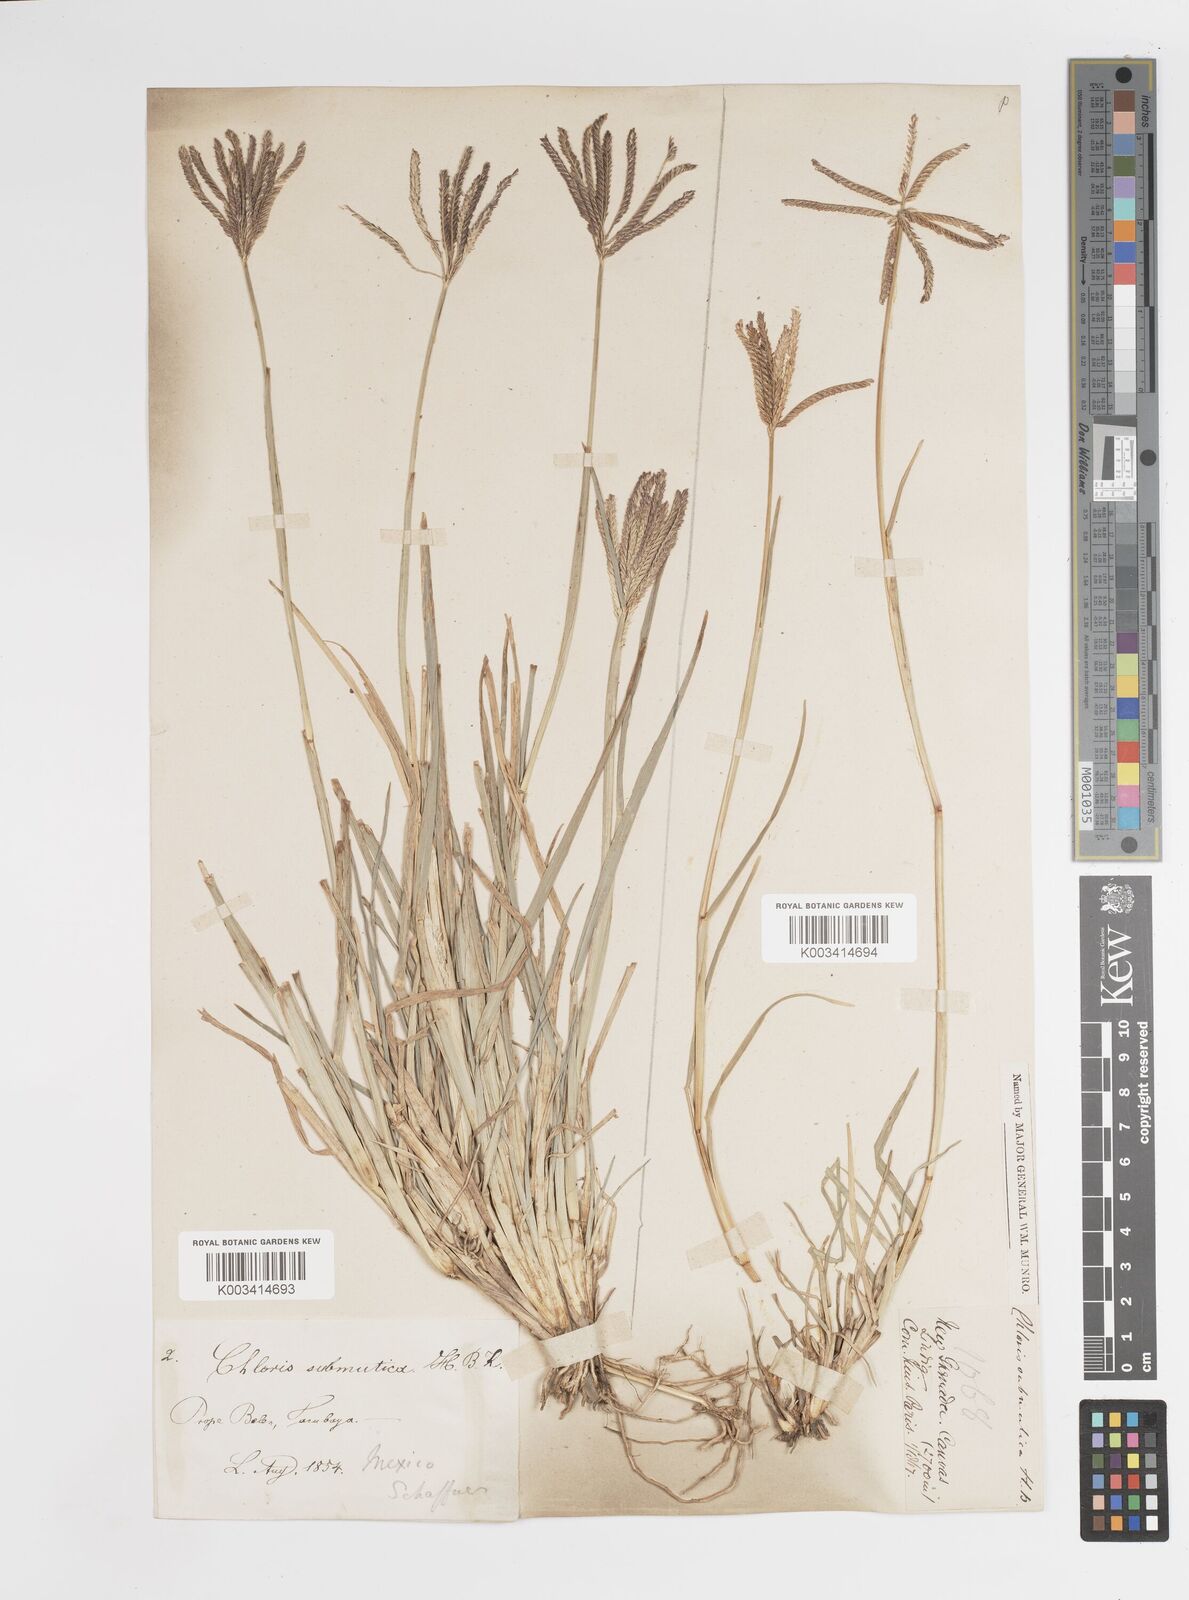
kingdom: Plantae
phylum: Tracheophyta
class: Liliopsida
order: Poales
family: Poaceae
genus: Chloris
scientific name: Chloris submutica
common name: Mexican windmill grass
